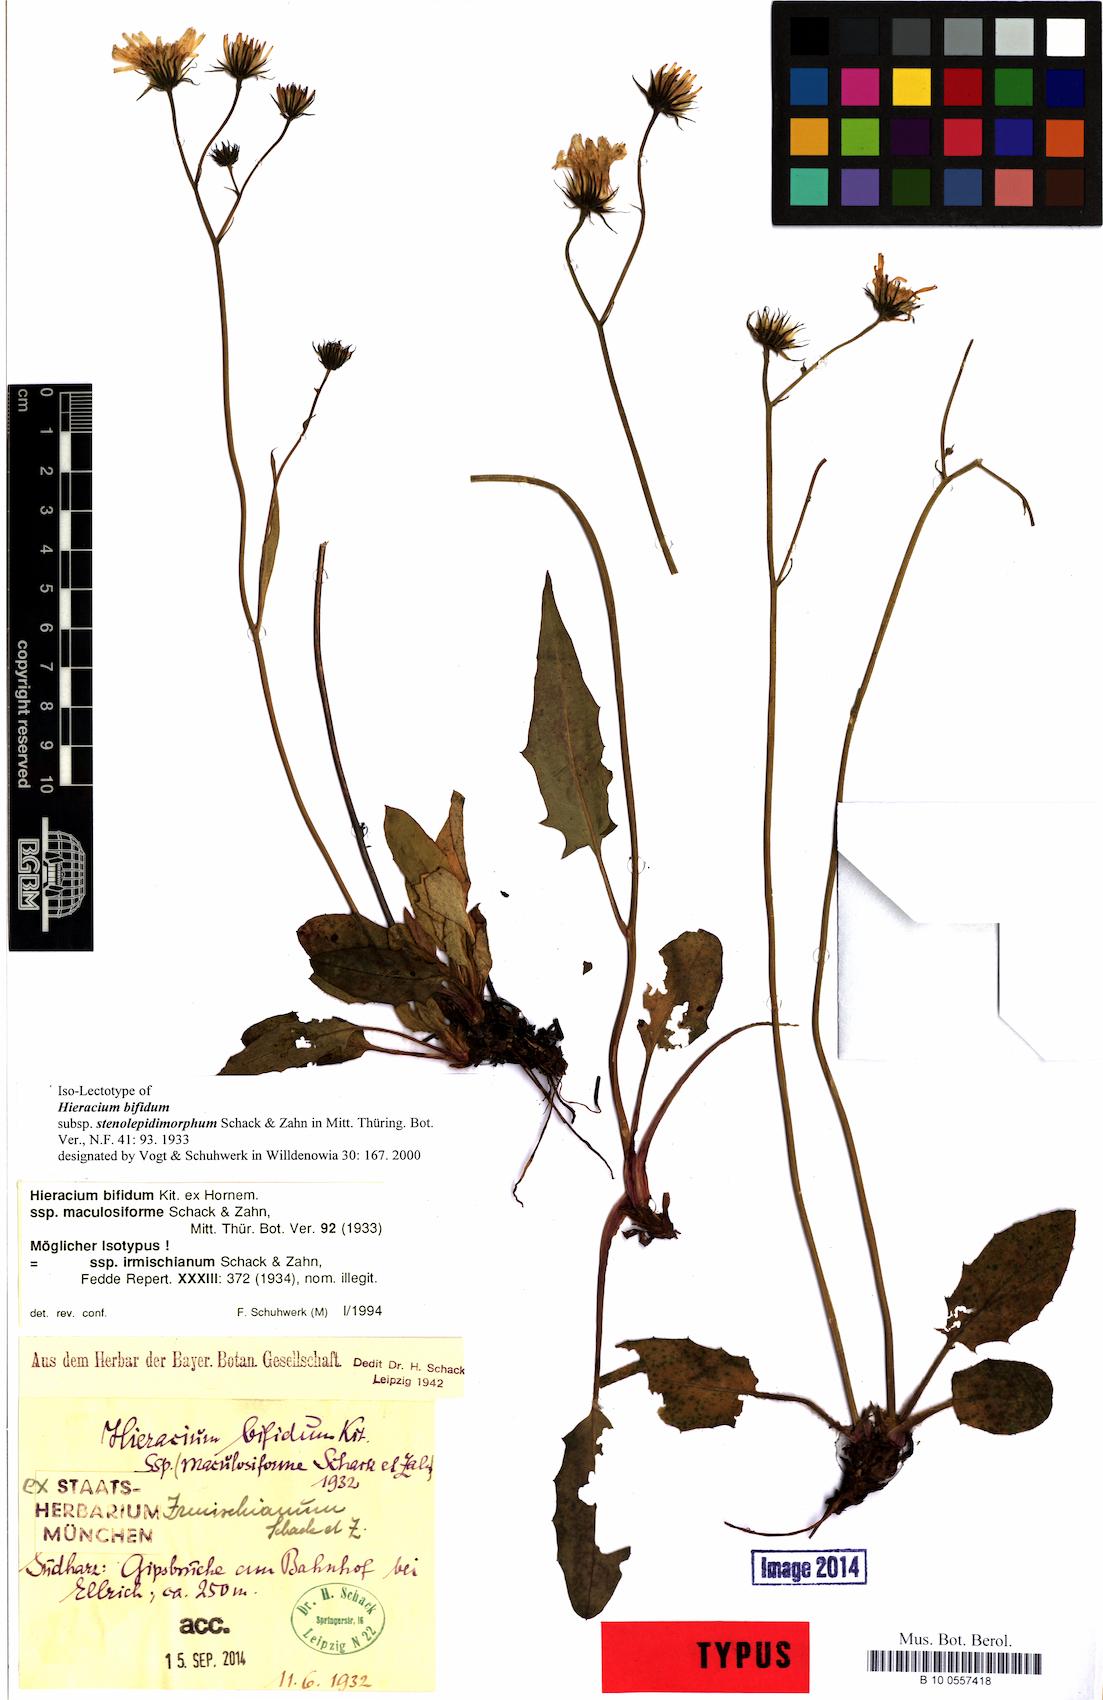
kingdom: Plantae
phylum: Tracheophyta
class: Magnoliopsida
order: Asterales
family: Asteraceae
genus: Hieracium
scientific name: Hieracium bifidum
